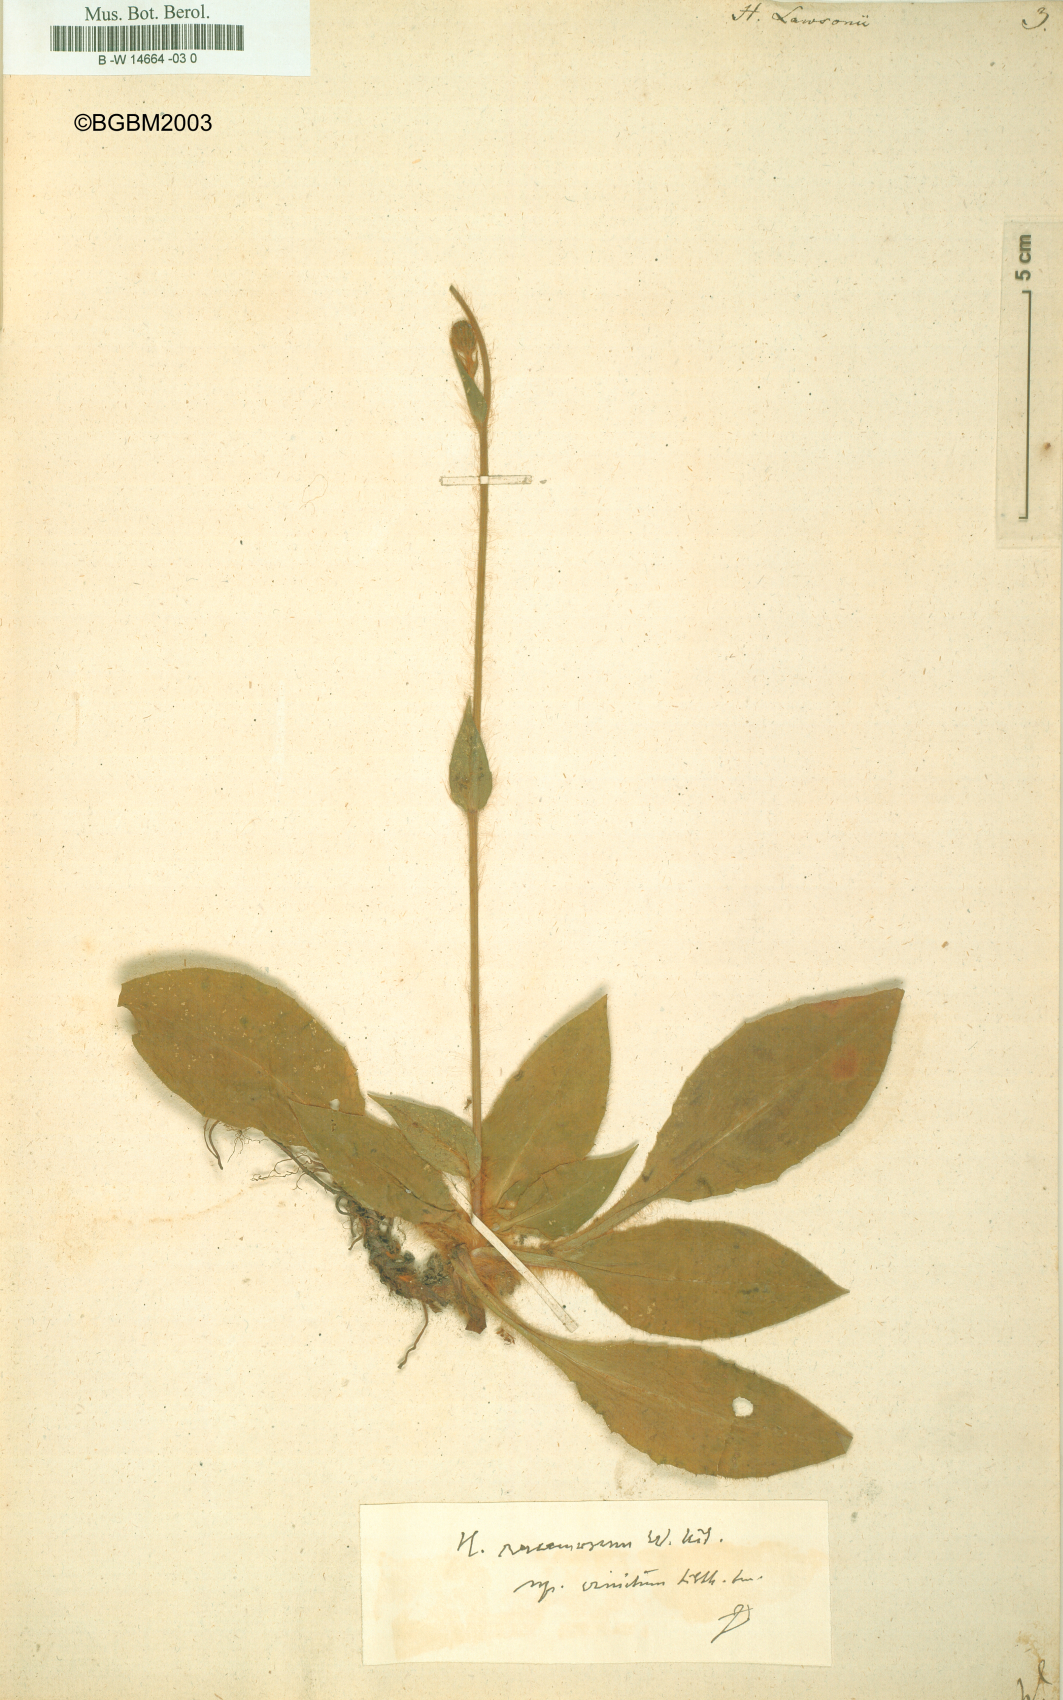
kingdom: Plantae
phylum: Tracheophyta
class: Magnoliopsida
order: Asterales
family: Asteraceae
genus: Hieracium
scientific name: Hieracium lawsonii
